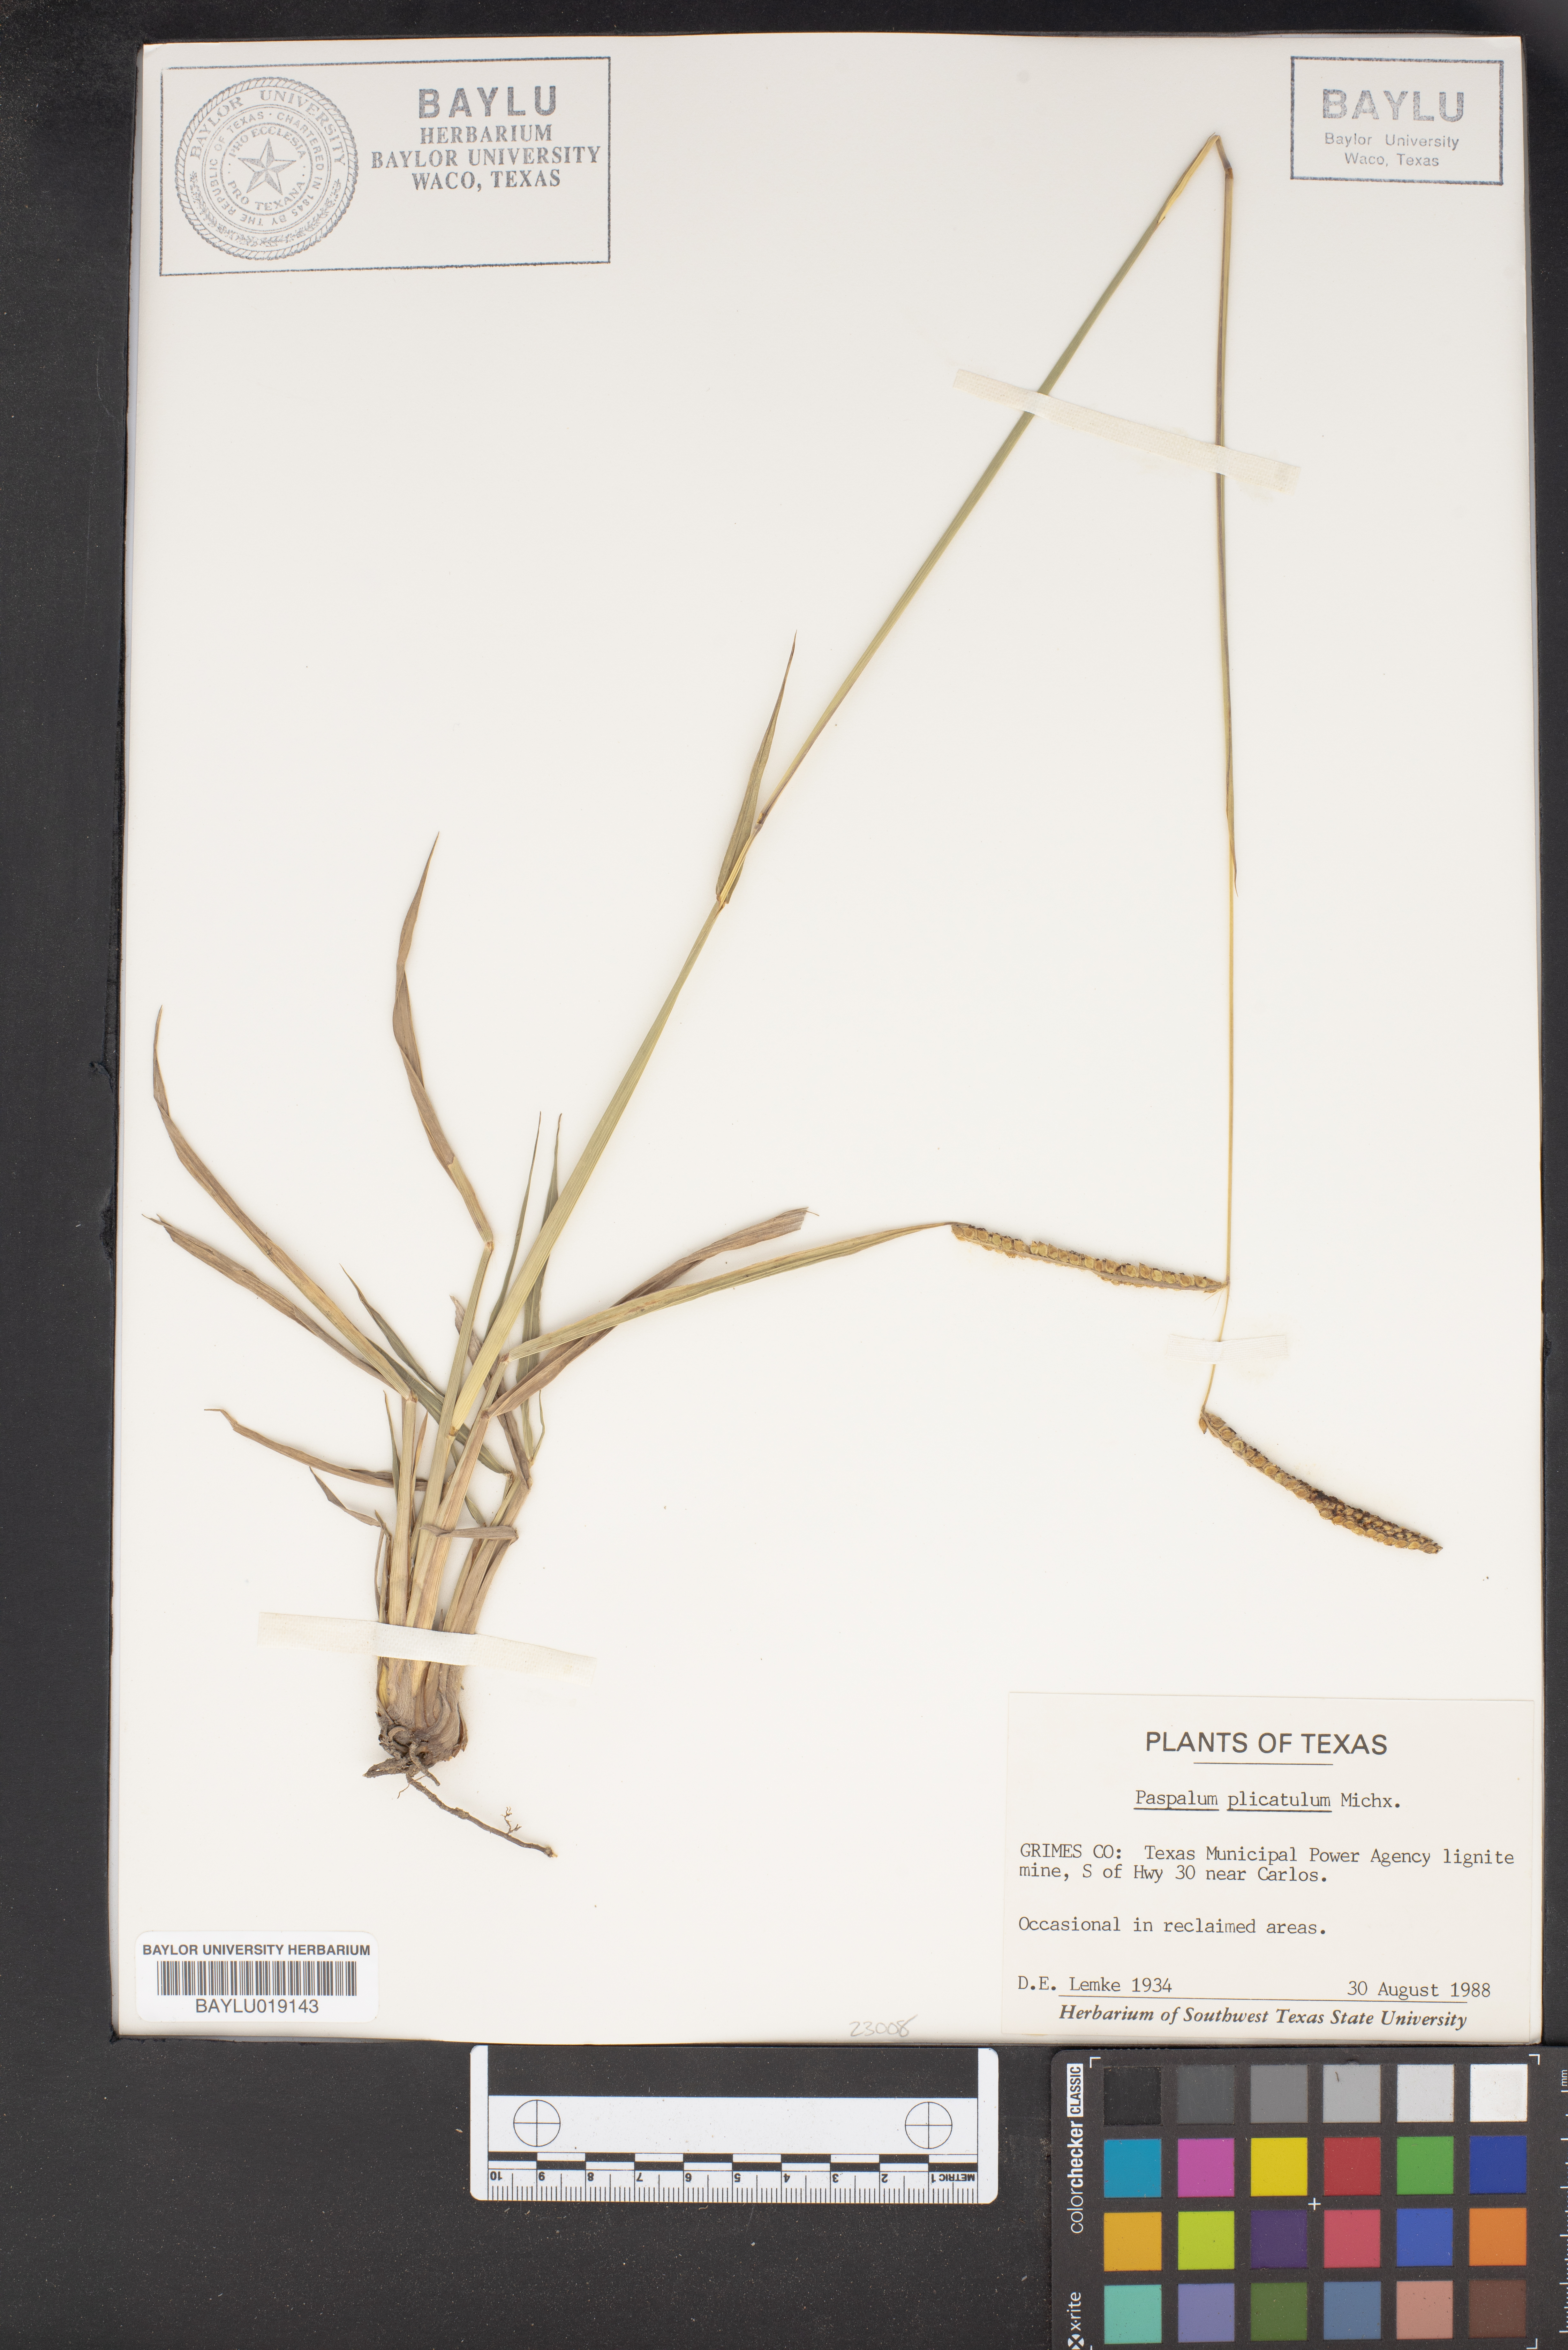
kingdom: Plantae
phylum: Tracheophyta
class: Liliopsida
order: Poales
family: Poaceae
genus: Paspalum
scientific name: Paspalum plicatulum
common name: Top paspalum
